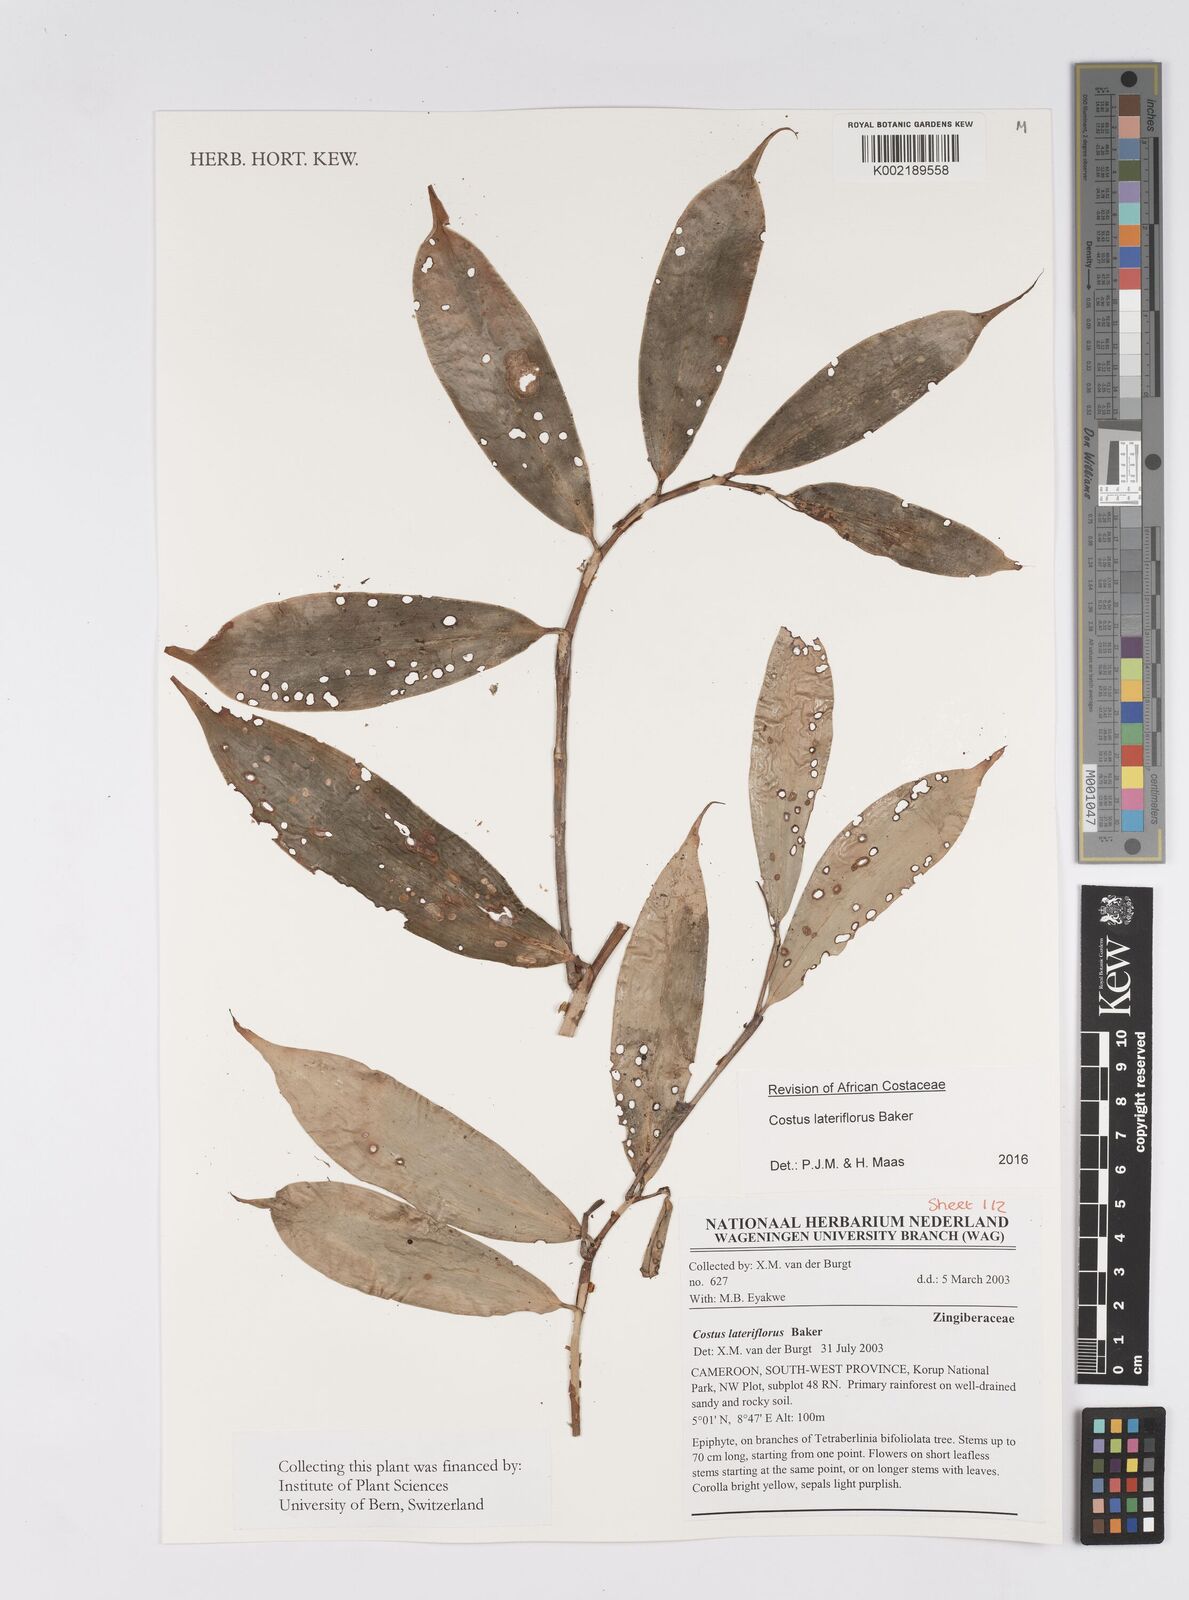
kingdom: Plantae
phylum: Tracheophyta
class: Liliopsida
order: Zingiberales
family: Costaceae
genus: Costus
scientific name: Costus lateriflorus
